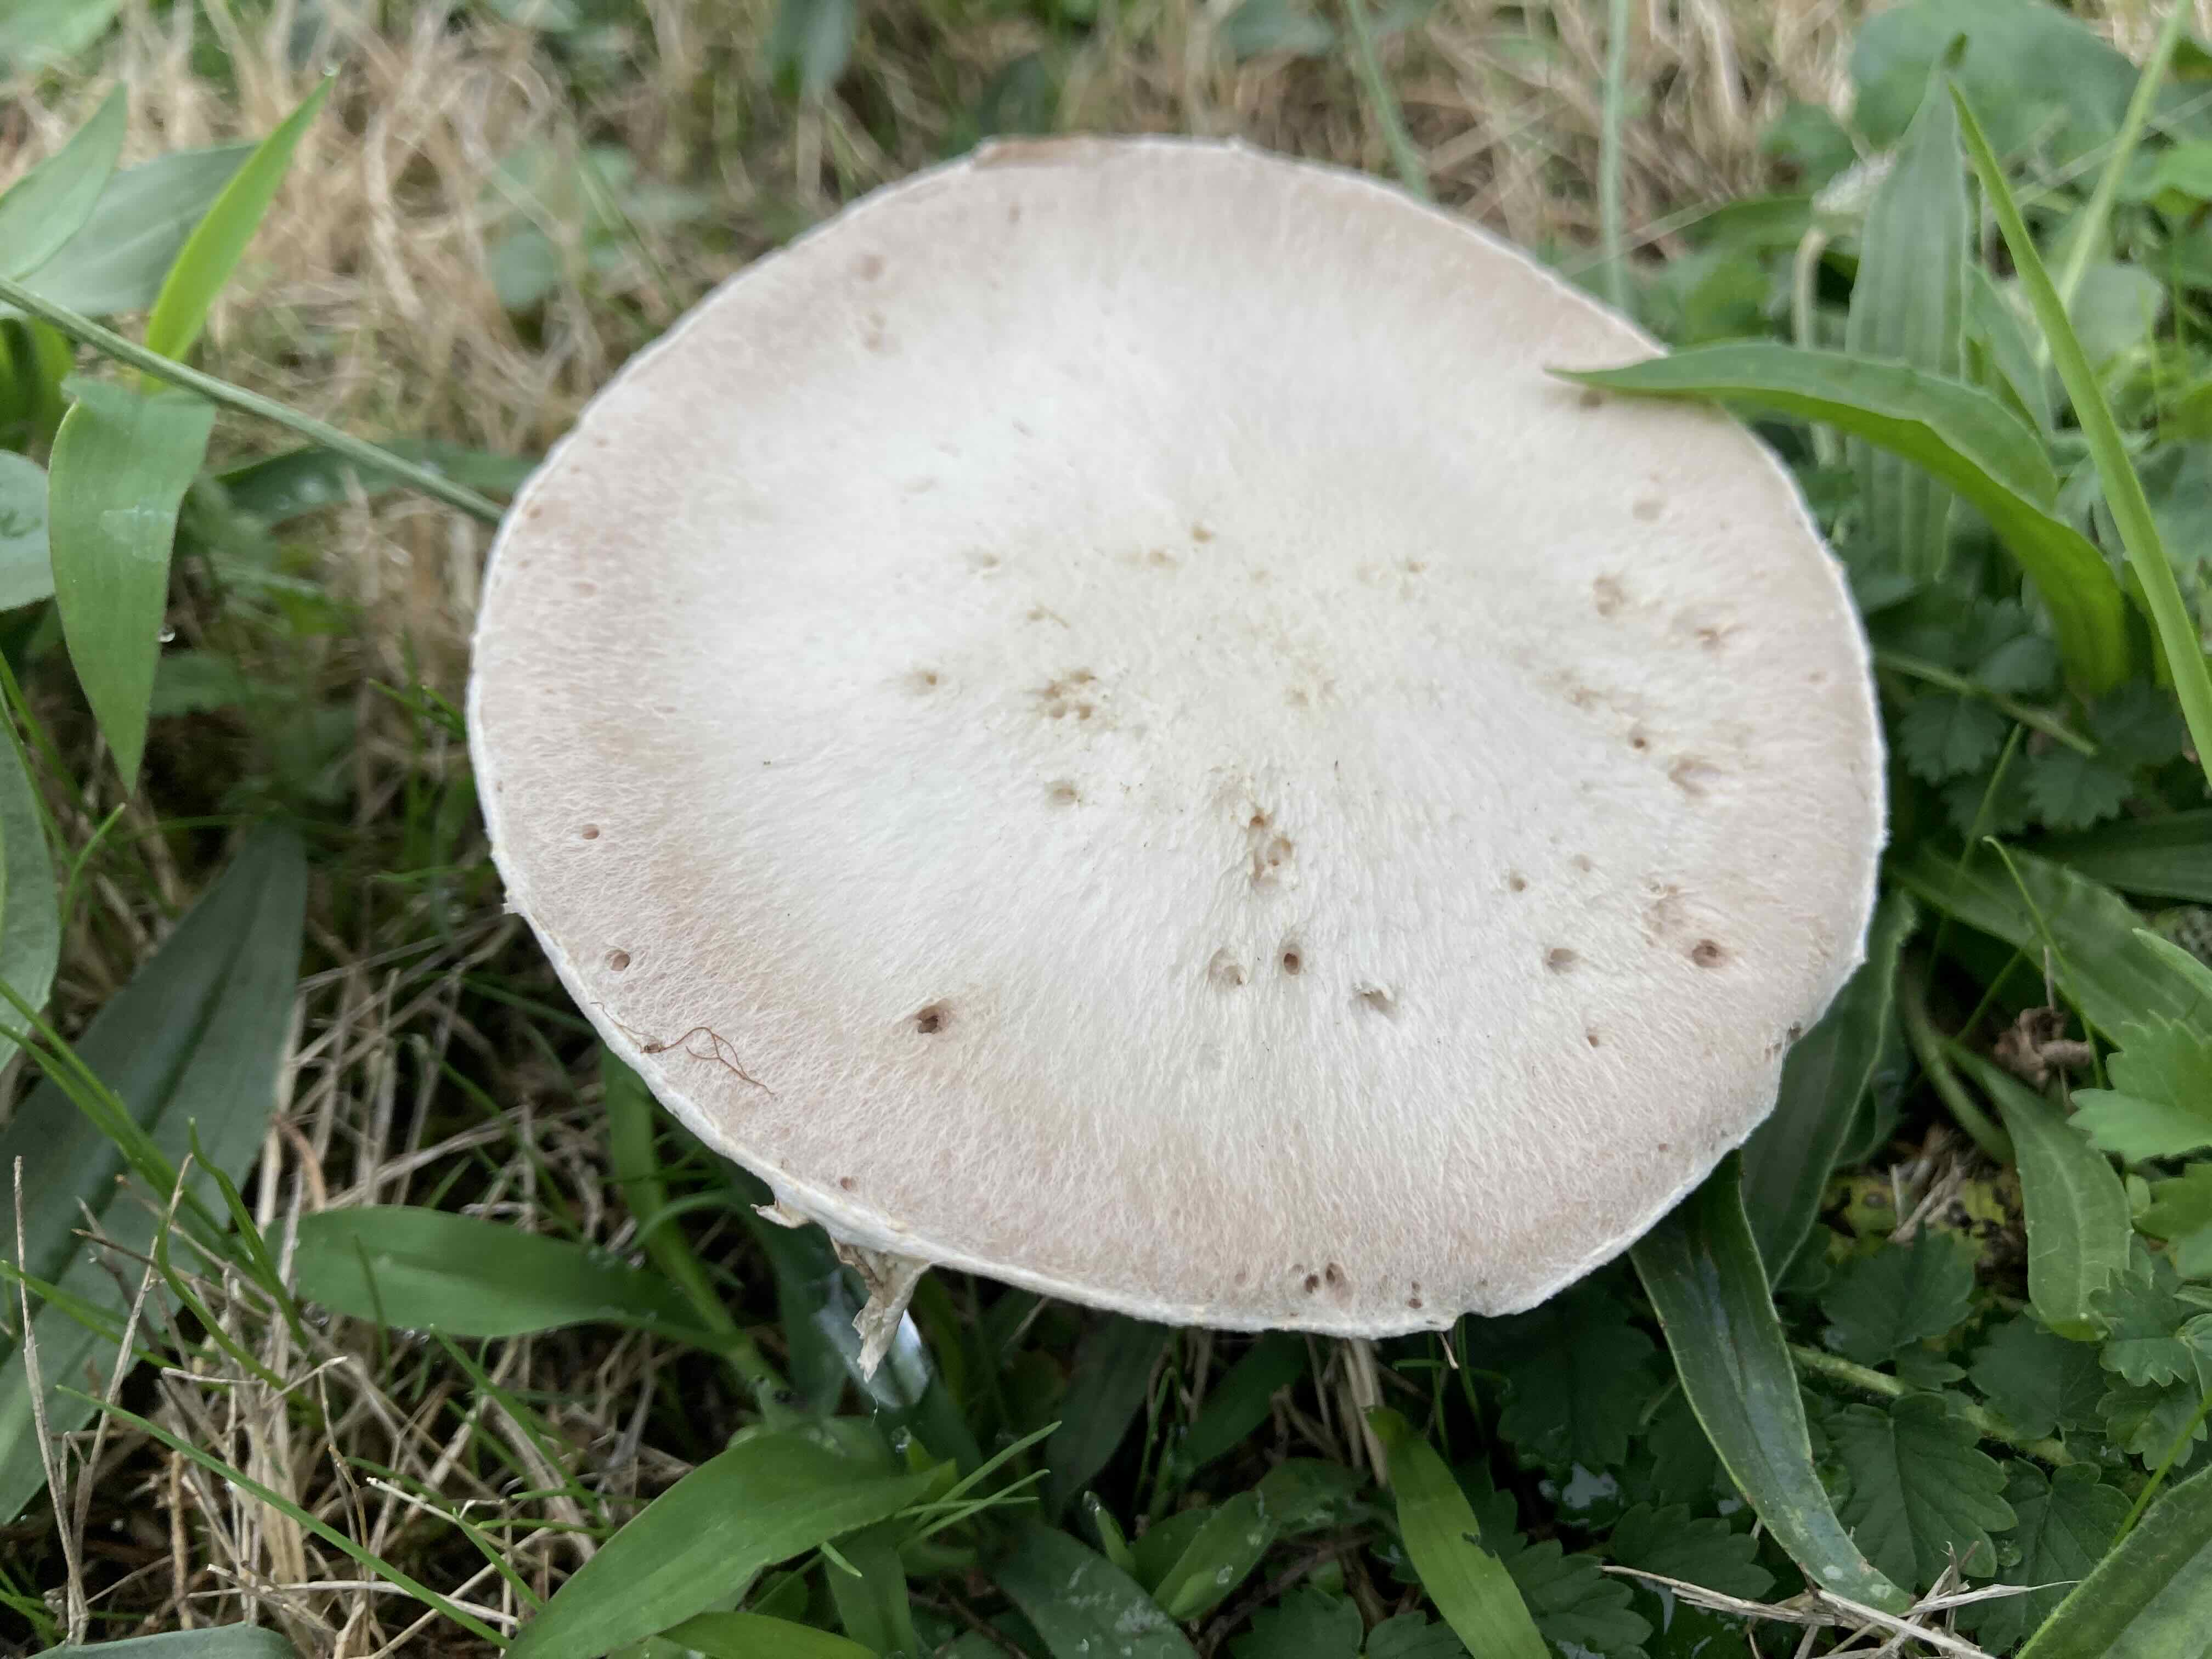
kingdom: Fungi
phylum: Basidiomycota
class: Agaricomycetes
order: Agaricales
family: Agaricaceae
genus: Agaricus
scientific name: Agaricus campestris
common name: mark-champignon
